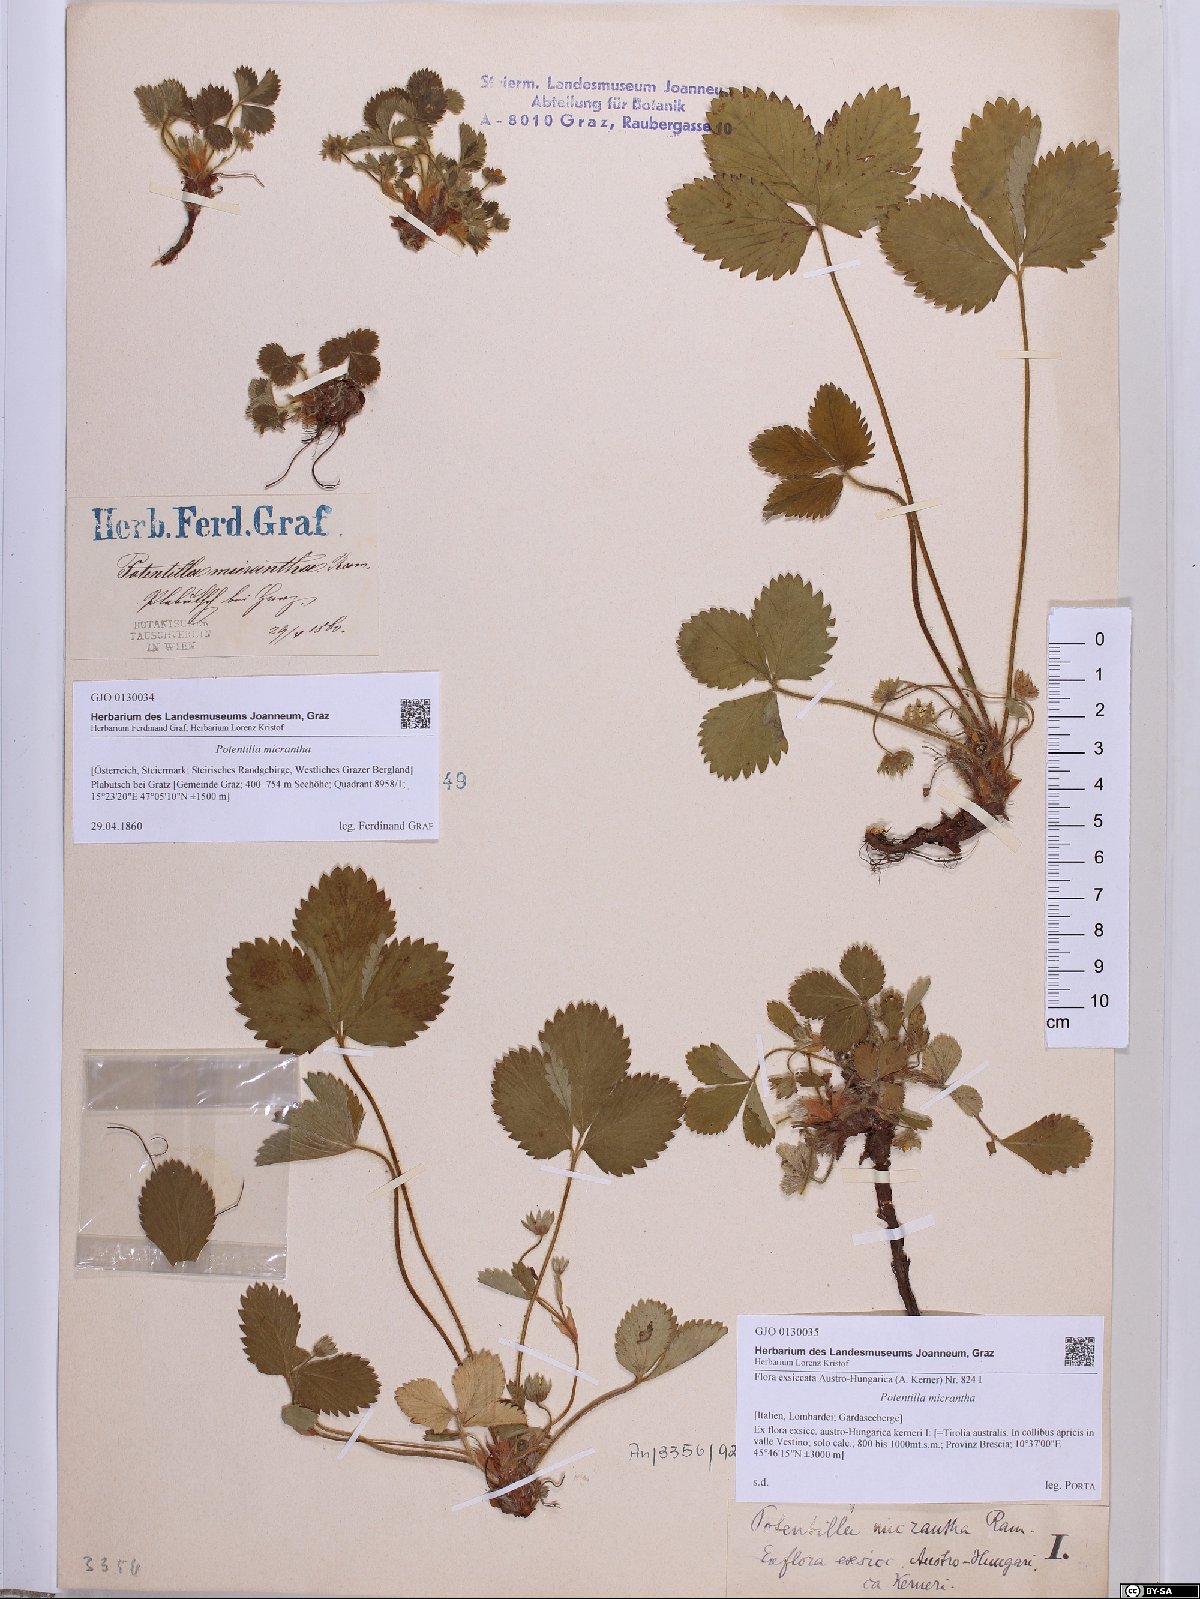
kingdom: Plantae
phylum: Tracheophyta
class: Magnoliopsida
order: Rosales
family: Rosaceae
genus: Potentilla
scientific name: Potentilla micrantha
